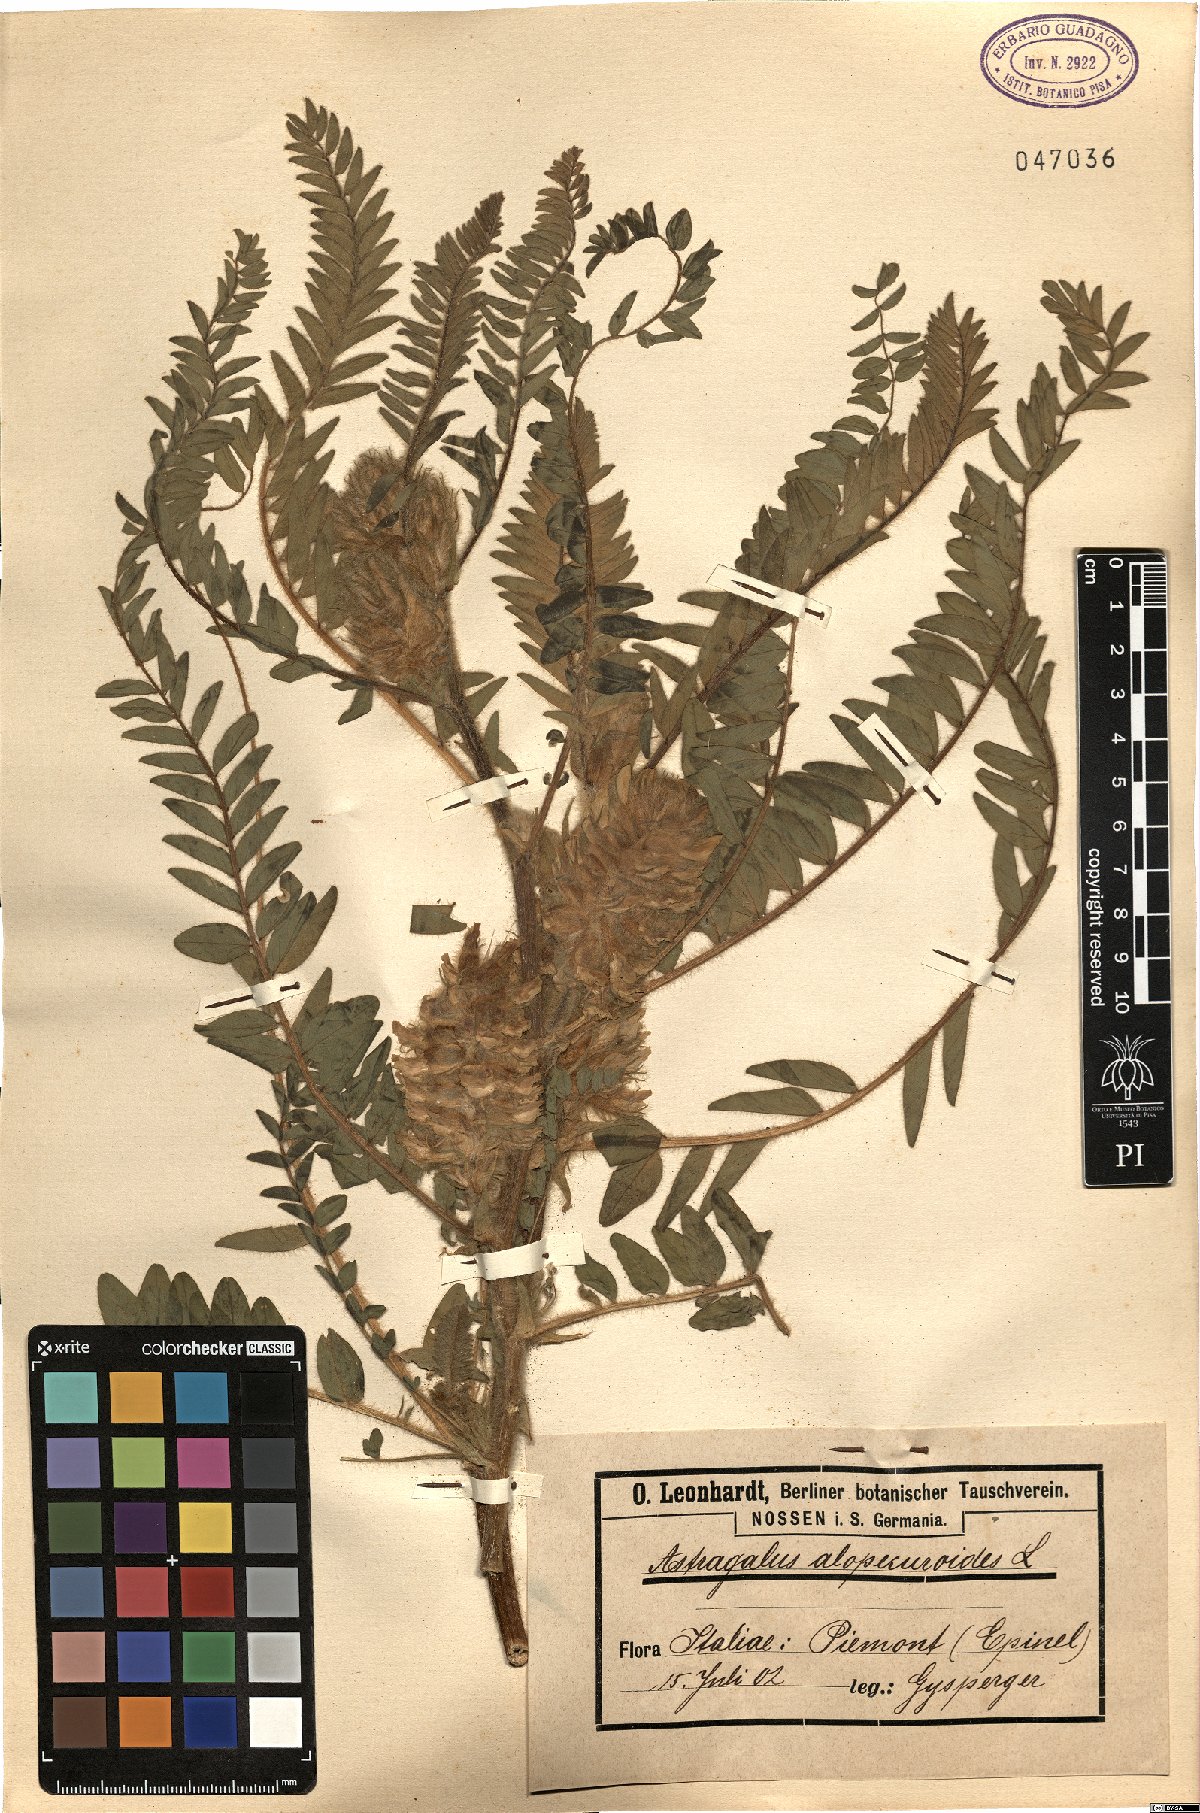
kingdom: Plantae
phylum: Tracheophyta
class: Magnoliopsida
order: Fabales
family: Fabaceae
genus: Astragalus
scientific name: Astragalus alopecuroides
